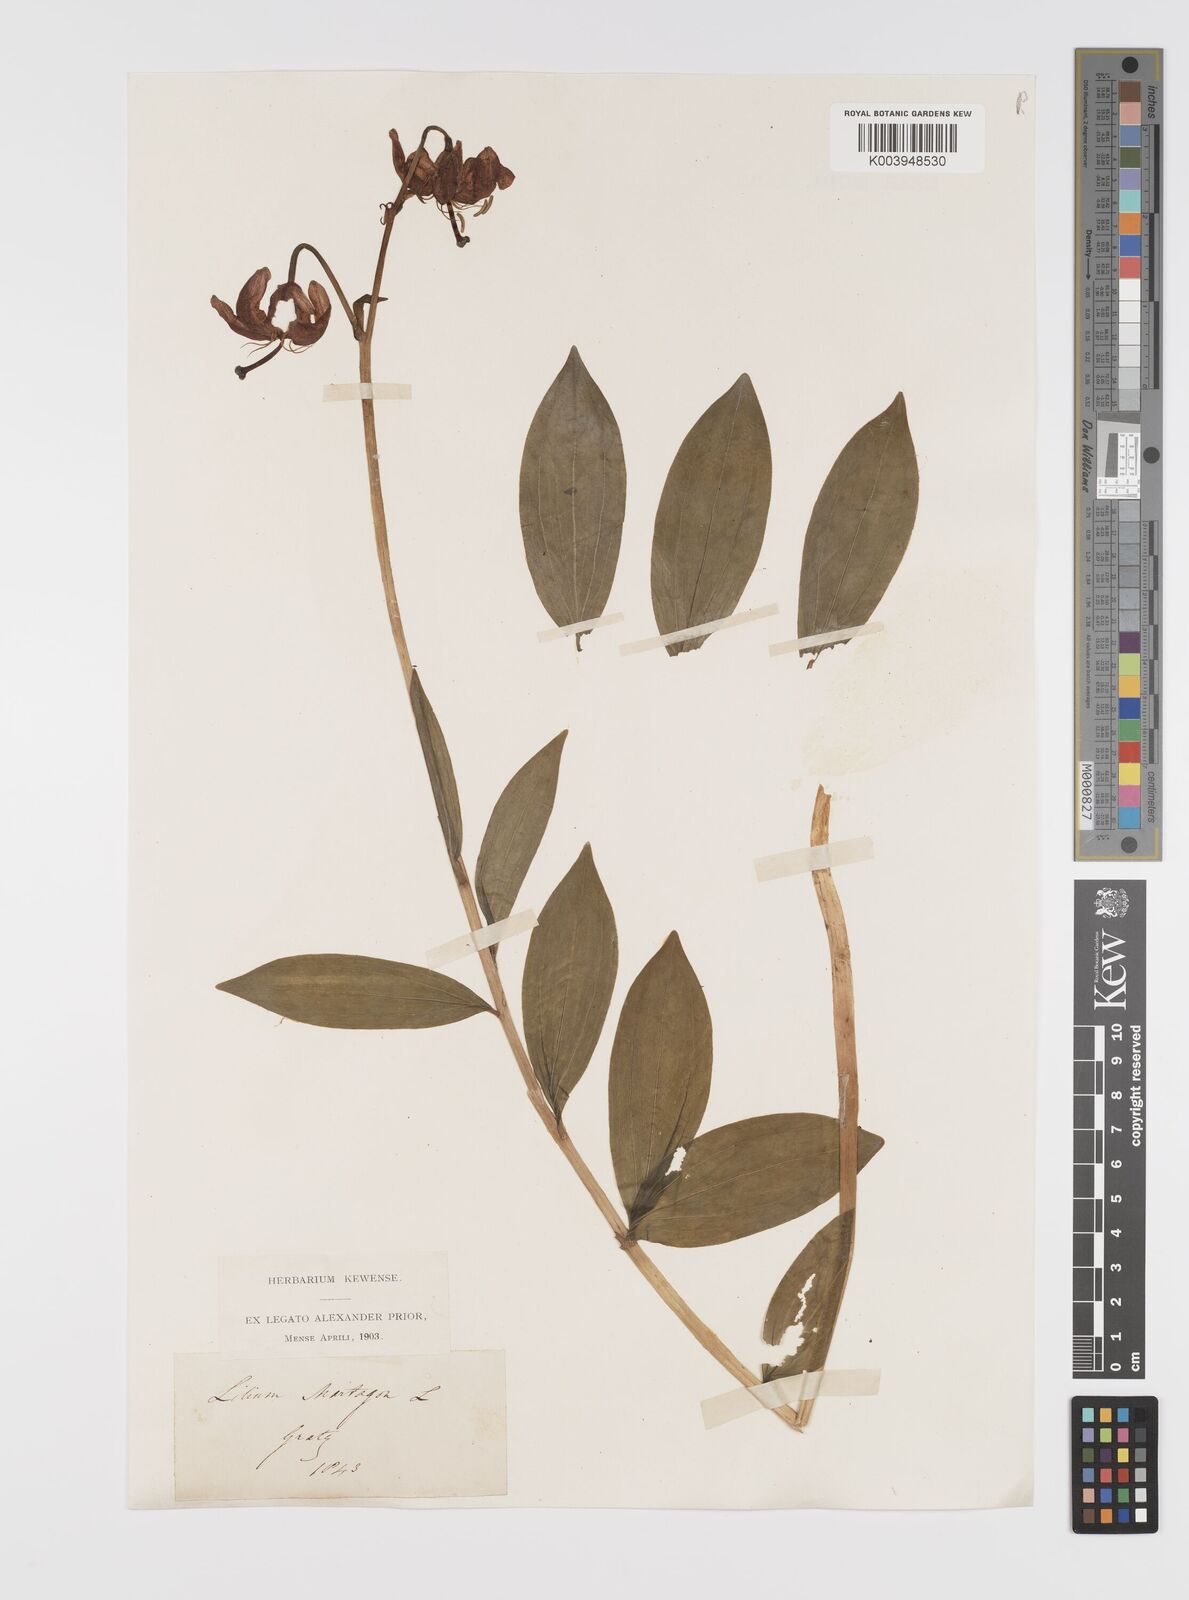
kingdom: Plantae
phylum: Tracheophyta
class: Liliopsida
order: Liliales
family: Liliaceae
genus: Lilium
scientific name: Lilium martagon
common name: Martagon lily
